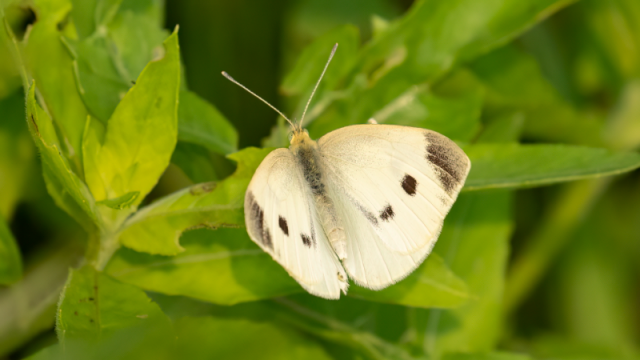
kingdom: Animalia
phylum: Arthropoda
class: Insecta
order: Lepidoptera
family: Pieridae
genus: Pieris
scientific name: Pieris rapae
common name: Cabbage White
